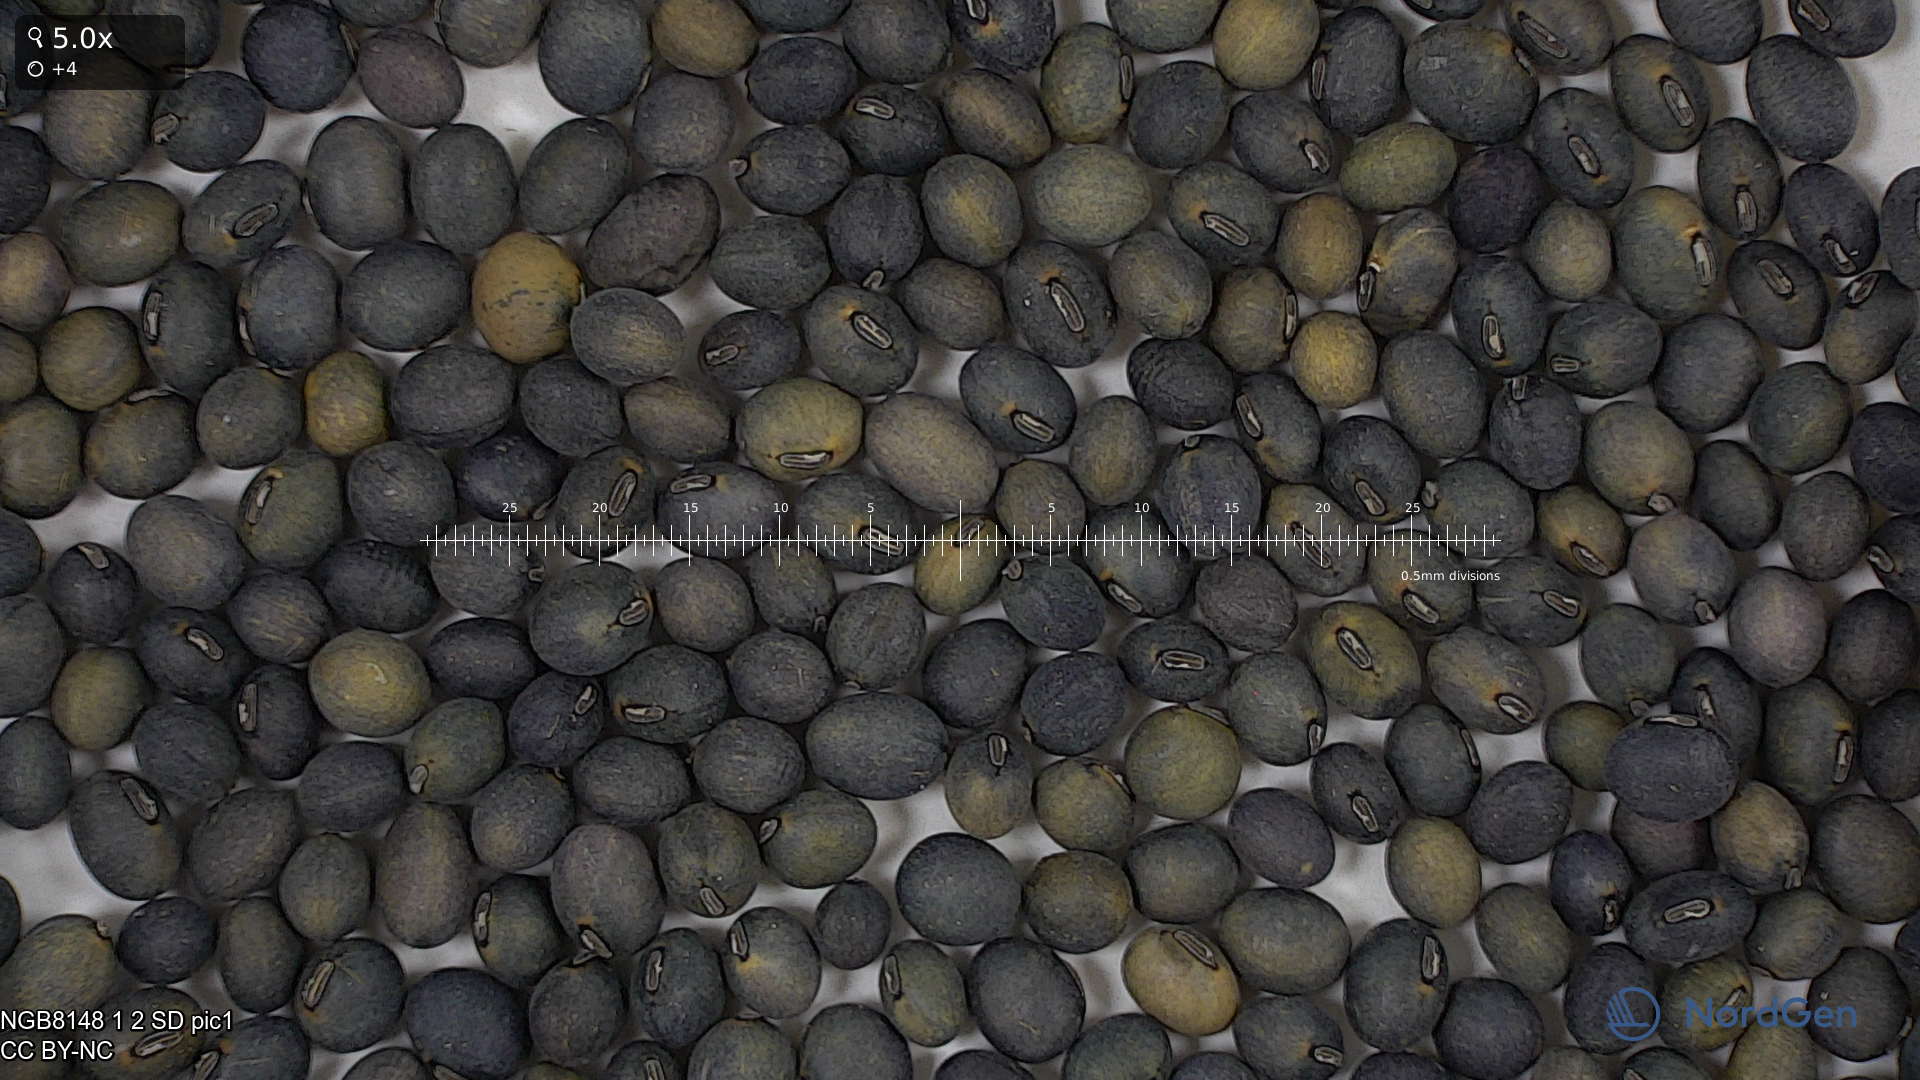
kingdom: Plantae
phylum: Tracheophyta
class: Magnoliopsida
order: Fabales
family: Fabaceae
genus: Glycine
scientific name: Glycine max
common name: Soya-bean
